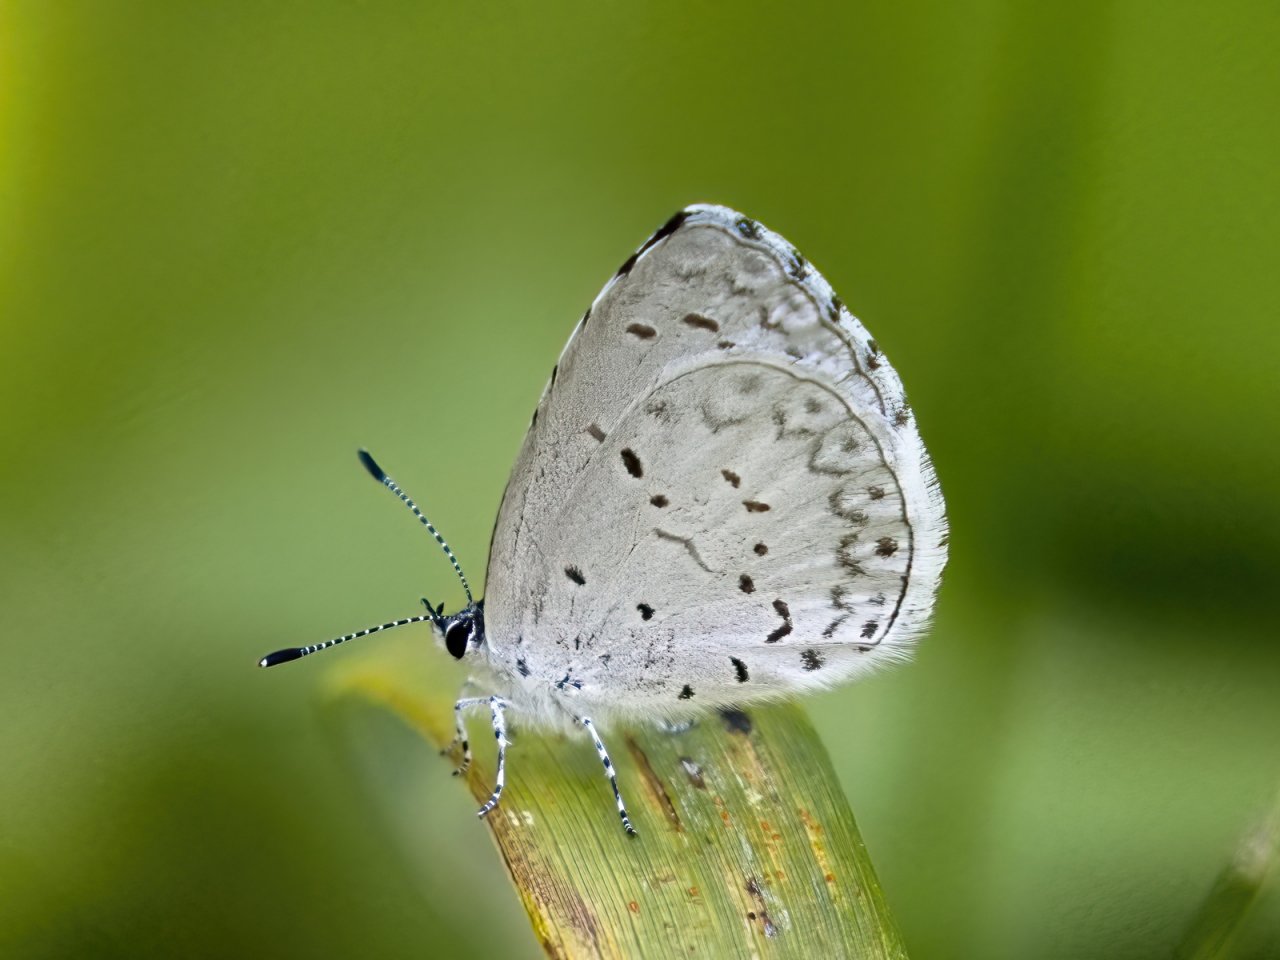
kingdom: Animalia
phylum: Arthropoda
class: Insecta
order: Lepidoptera
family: Lycaenidae
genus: Cyaniris
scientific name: Cyaniris neglecta
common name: Summer Azure
